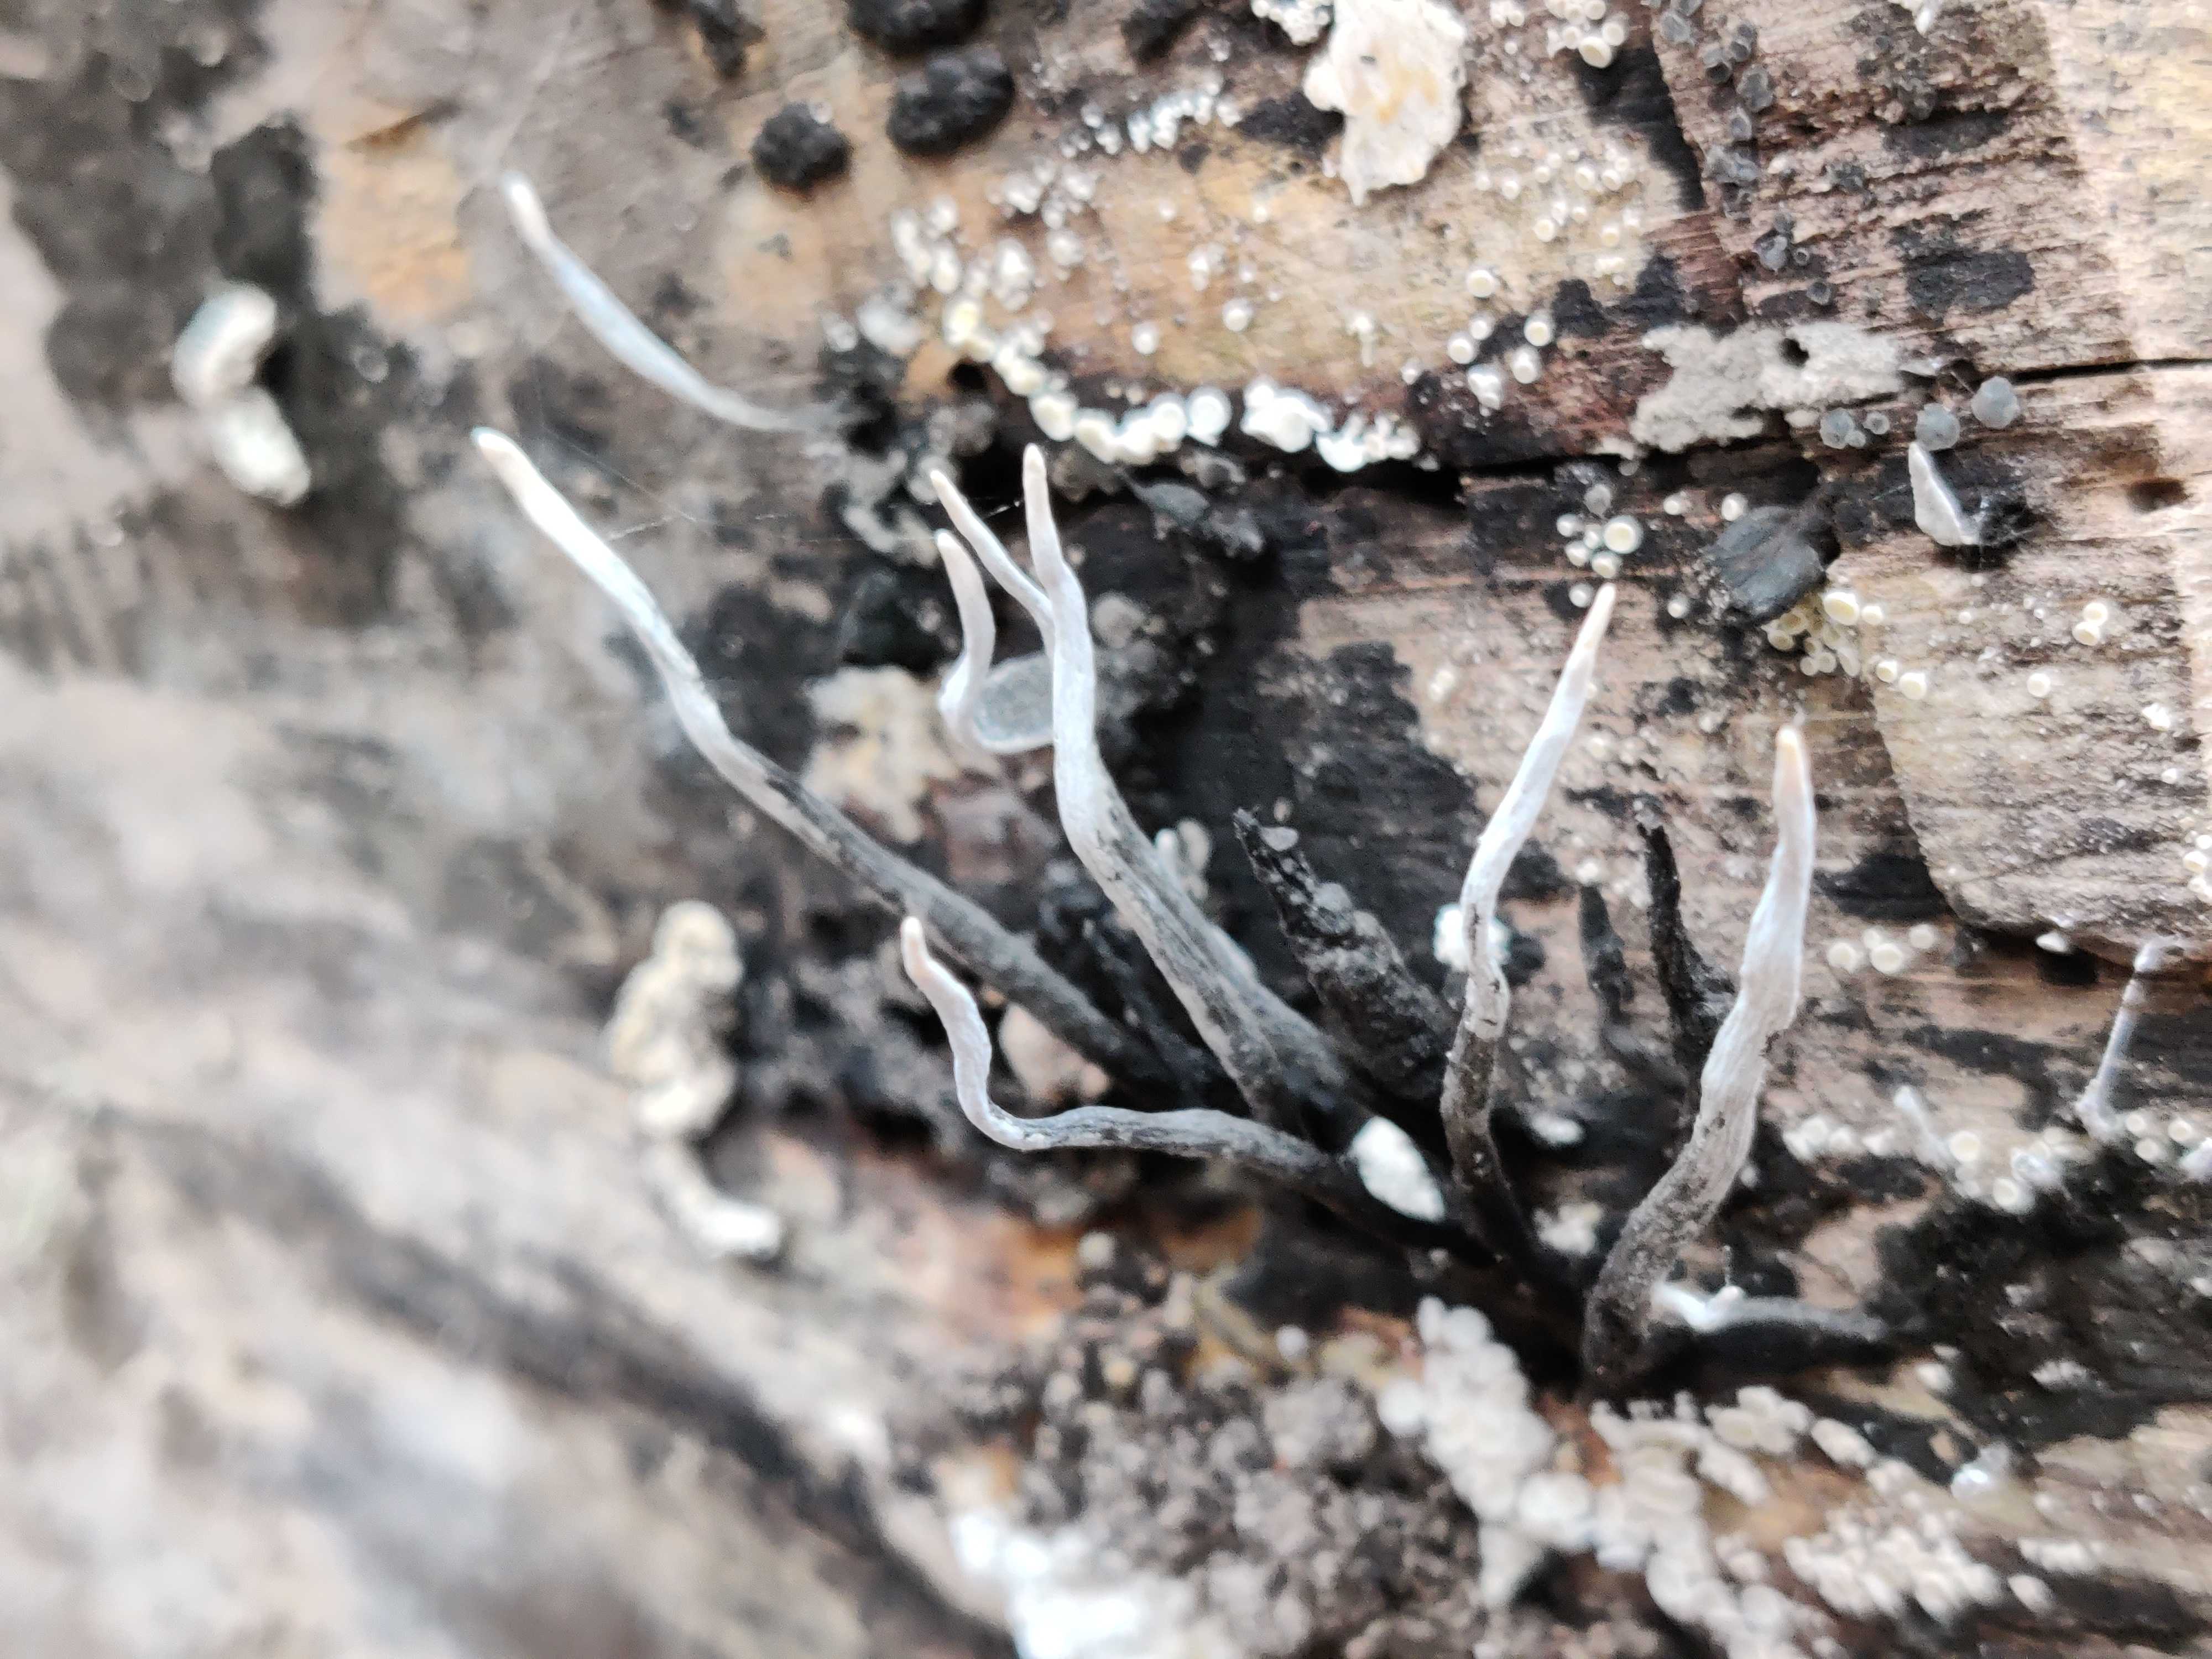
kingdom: Fungi
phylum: Ascomycota
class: Sordariomycetes
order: Xylariales
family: Xylariaceae
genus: Xylaria
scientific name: Xylaria hypoxylon
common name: grenet stødsvamp
